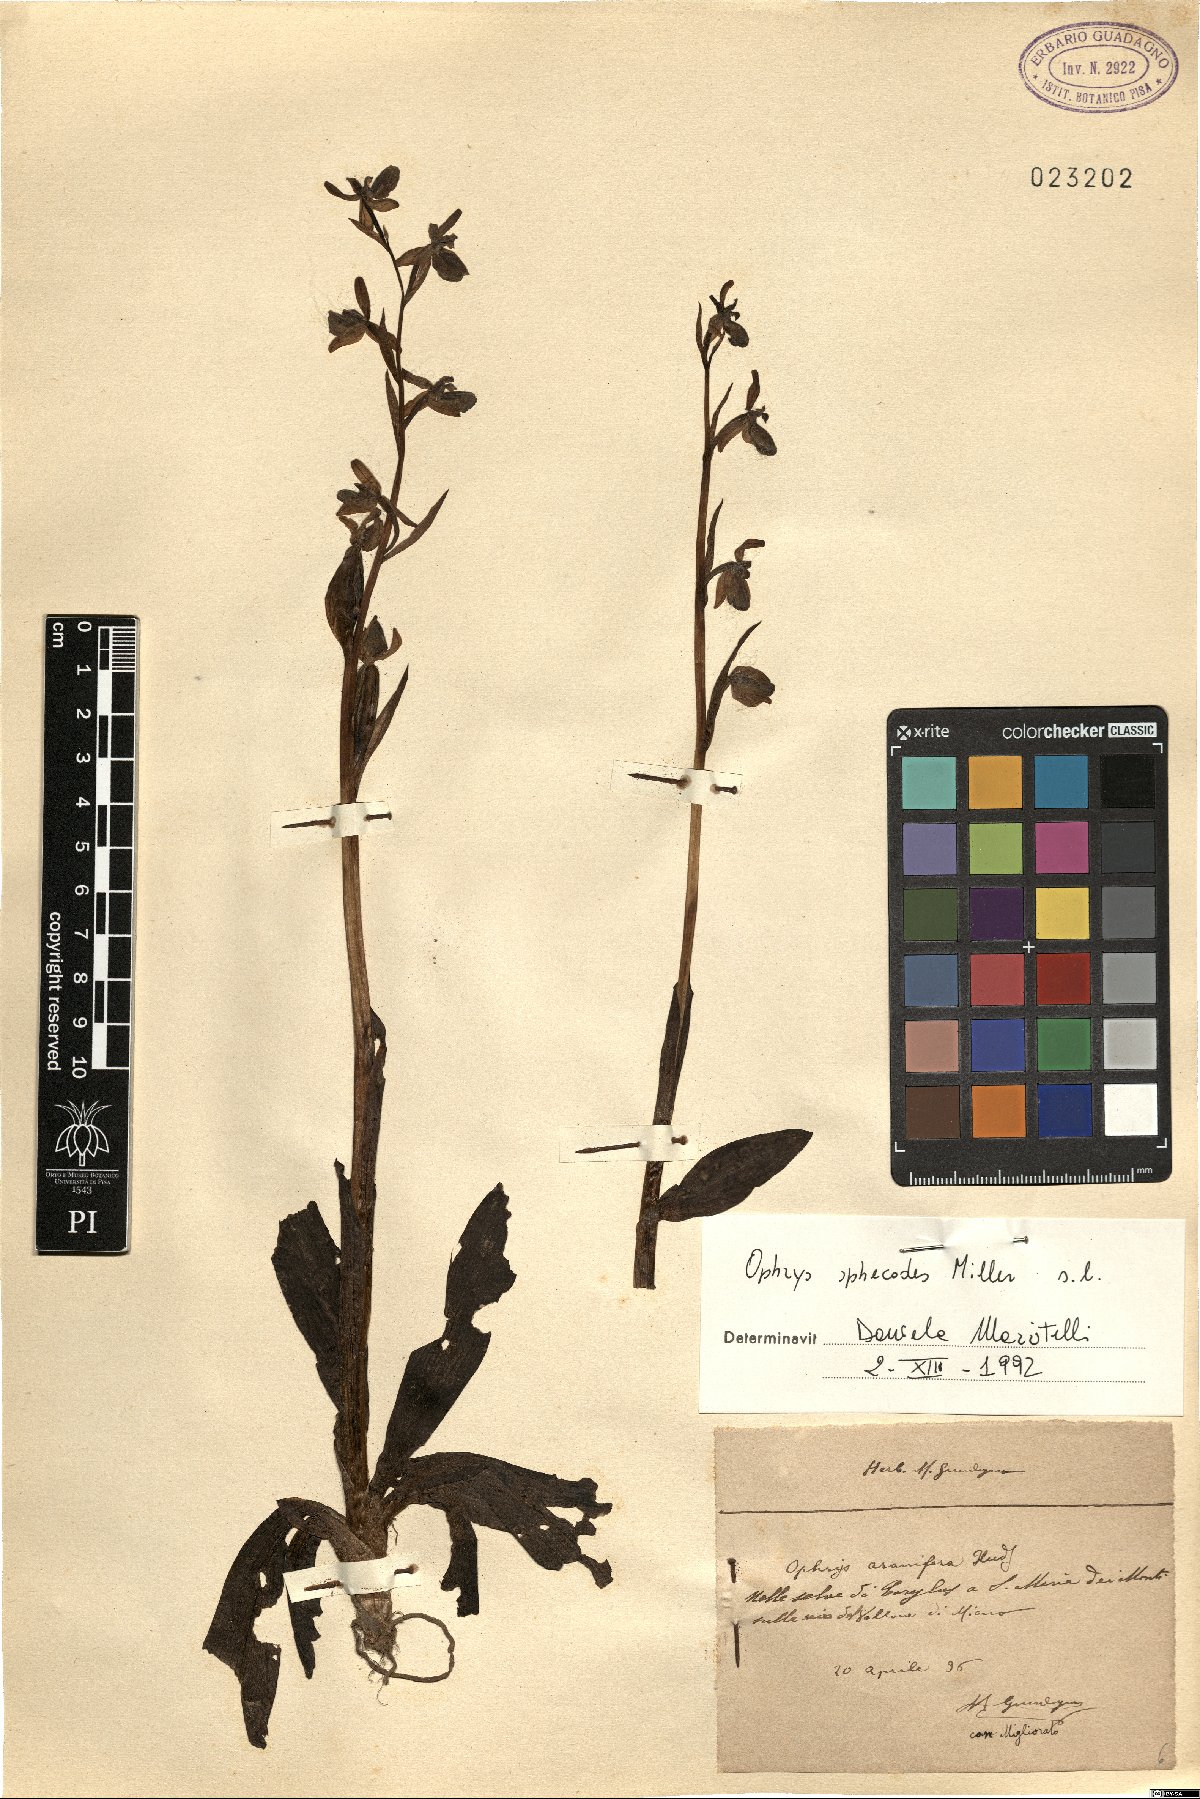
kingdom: Plantae
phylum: Tracheophyta
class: Liliopsida
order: Asparagales
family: Orchidaceae
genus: Ophrys
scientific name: Ophrys sphegodes
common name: Early spider-orchid
